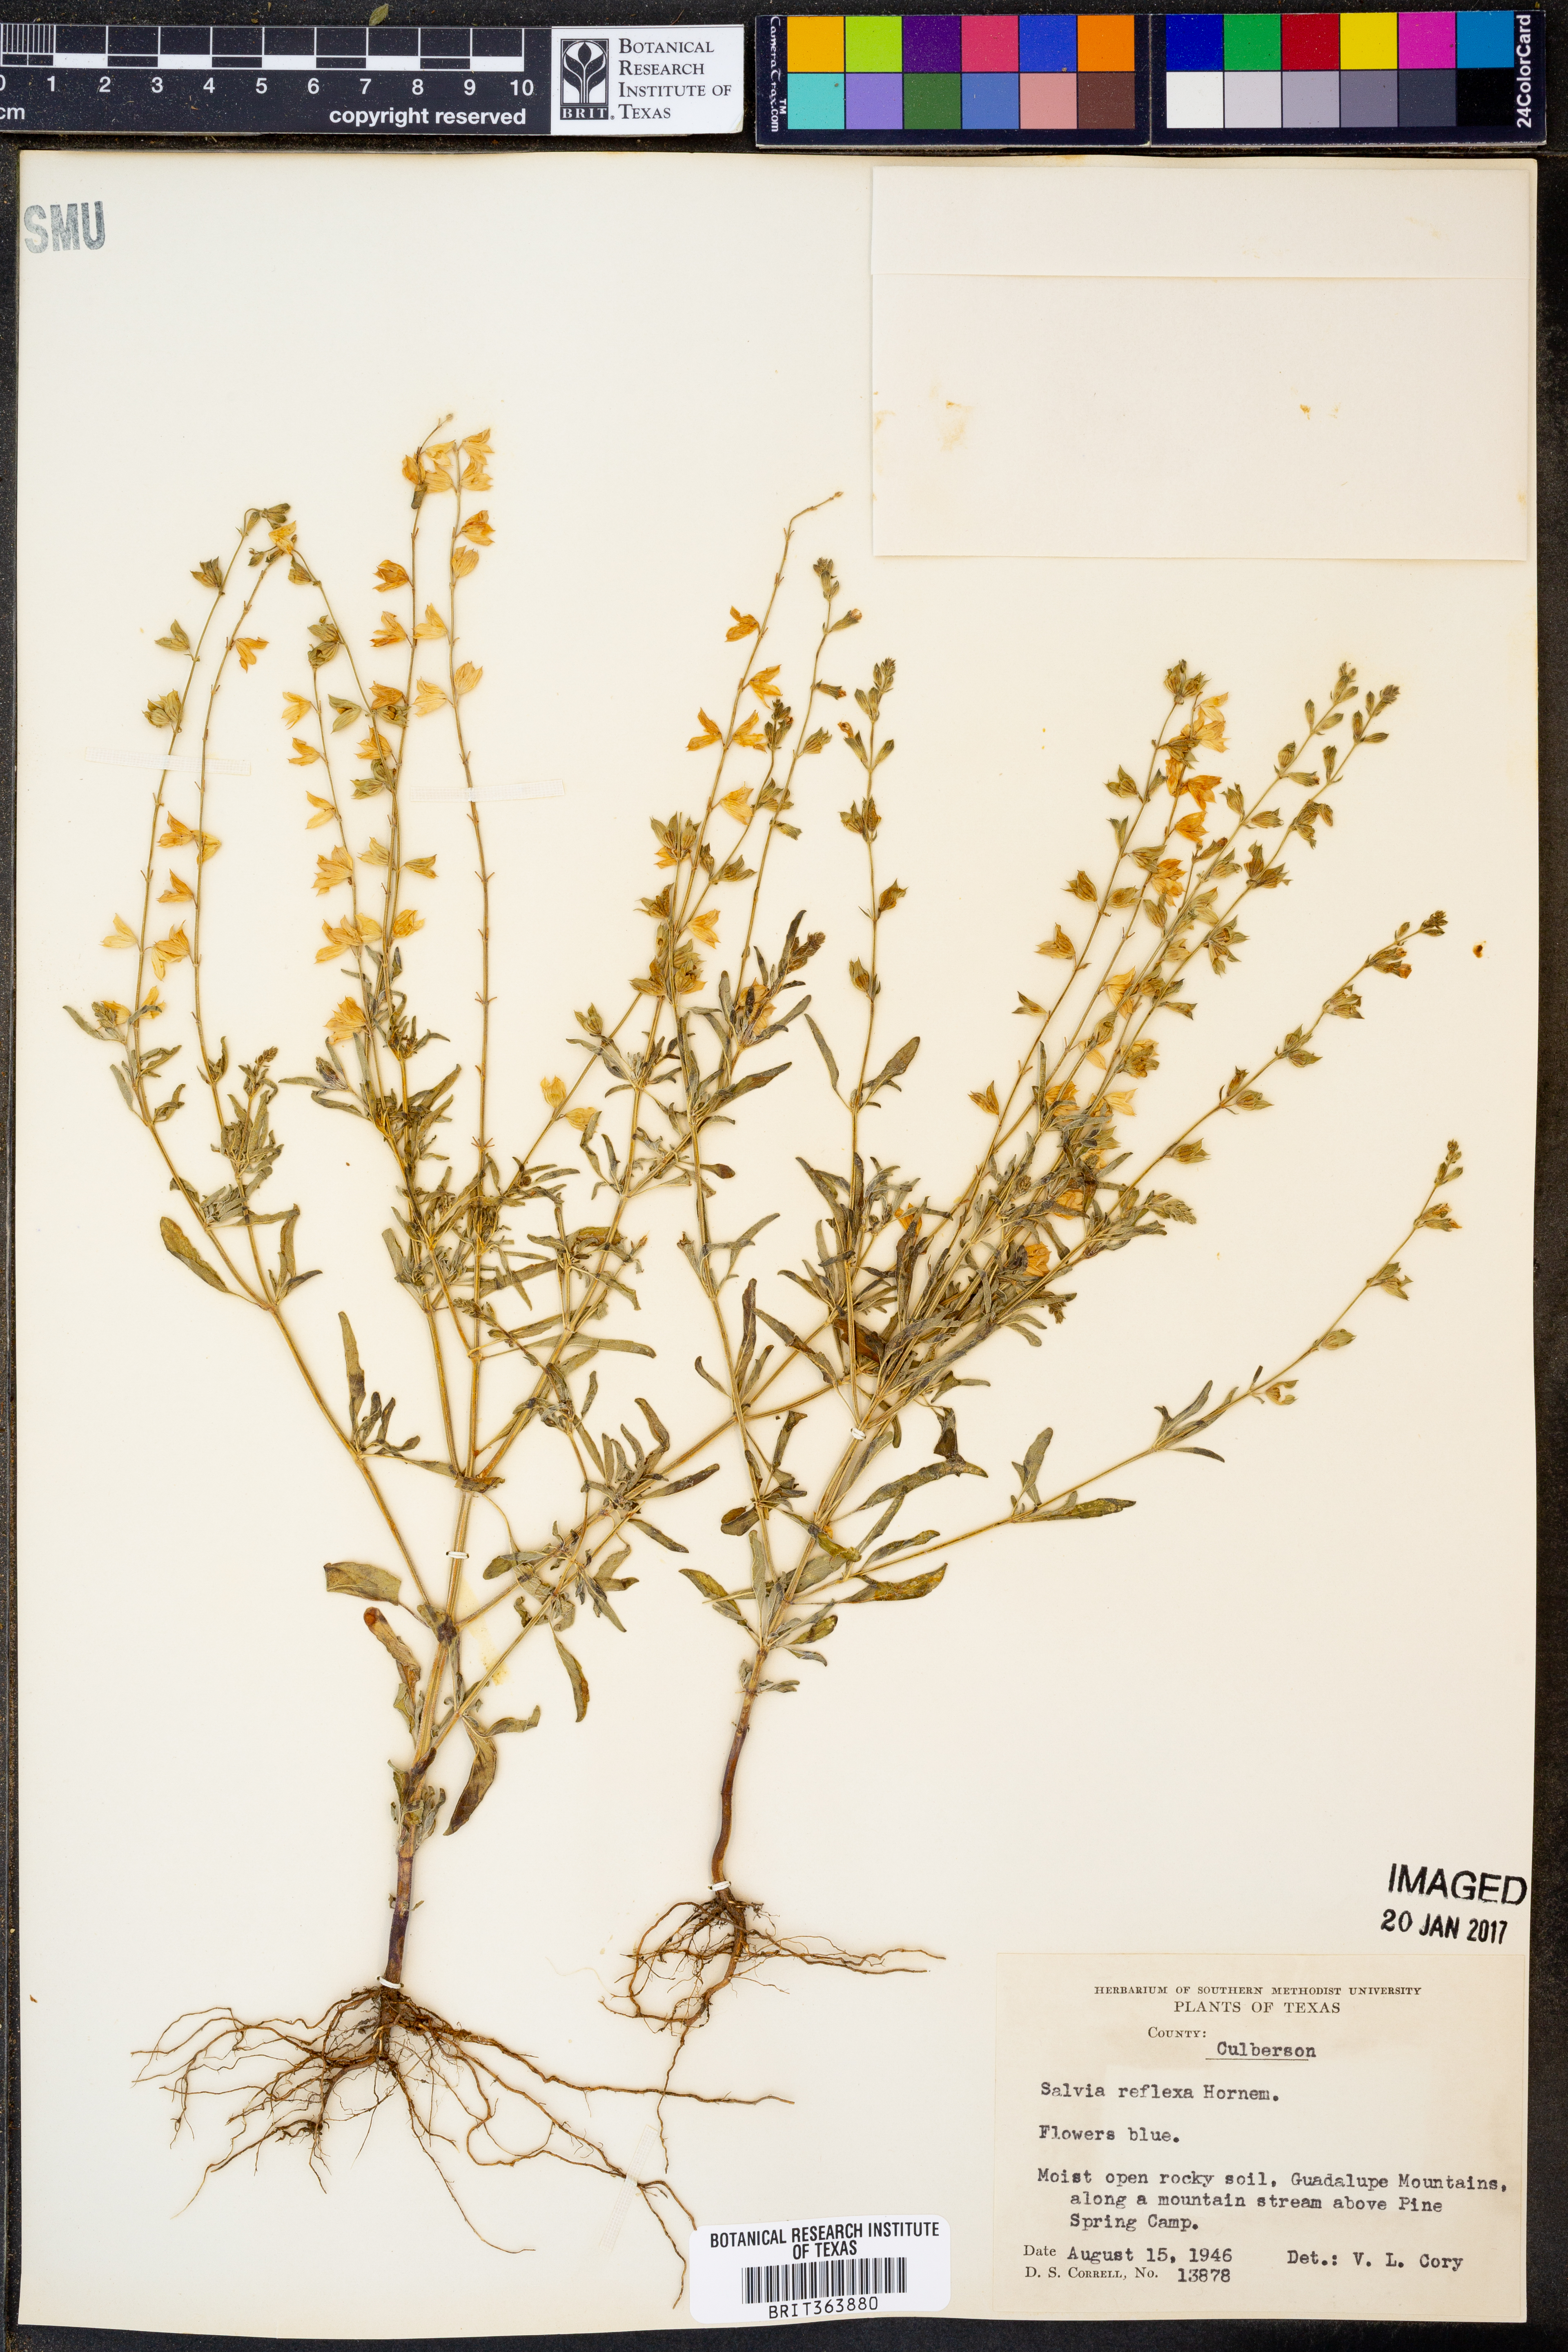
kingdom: Plantae
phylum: Tracheophyta
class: Magnoliopsida
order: Lamiales
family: Lamiaceae
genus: Salvia
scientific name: Salvia reflexa
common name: Mintweed
